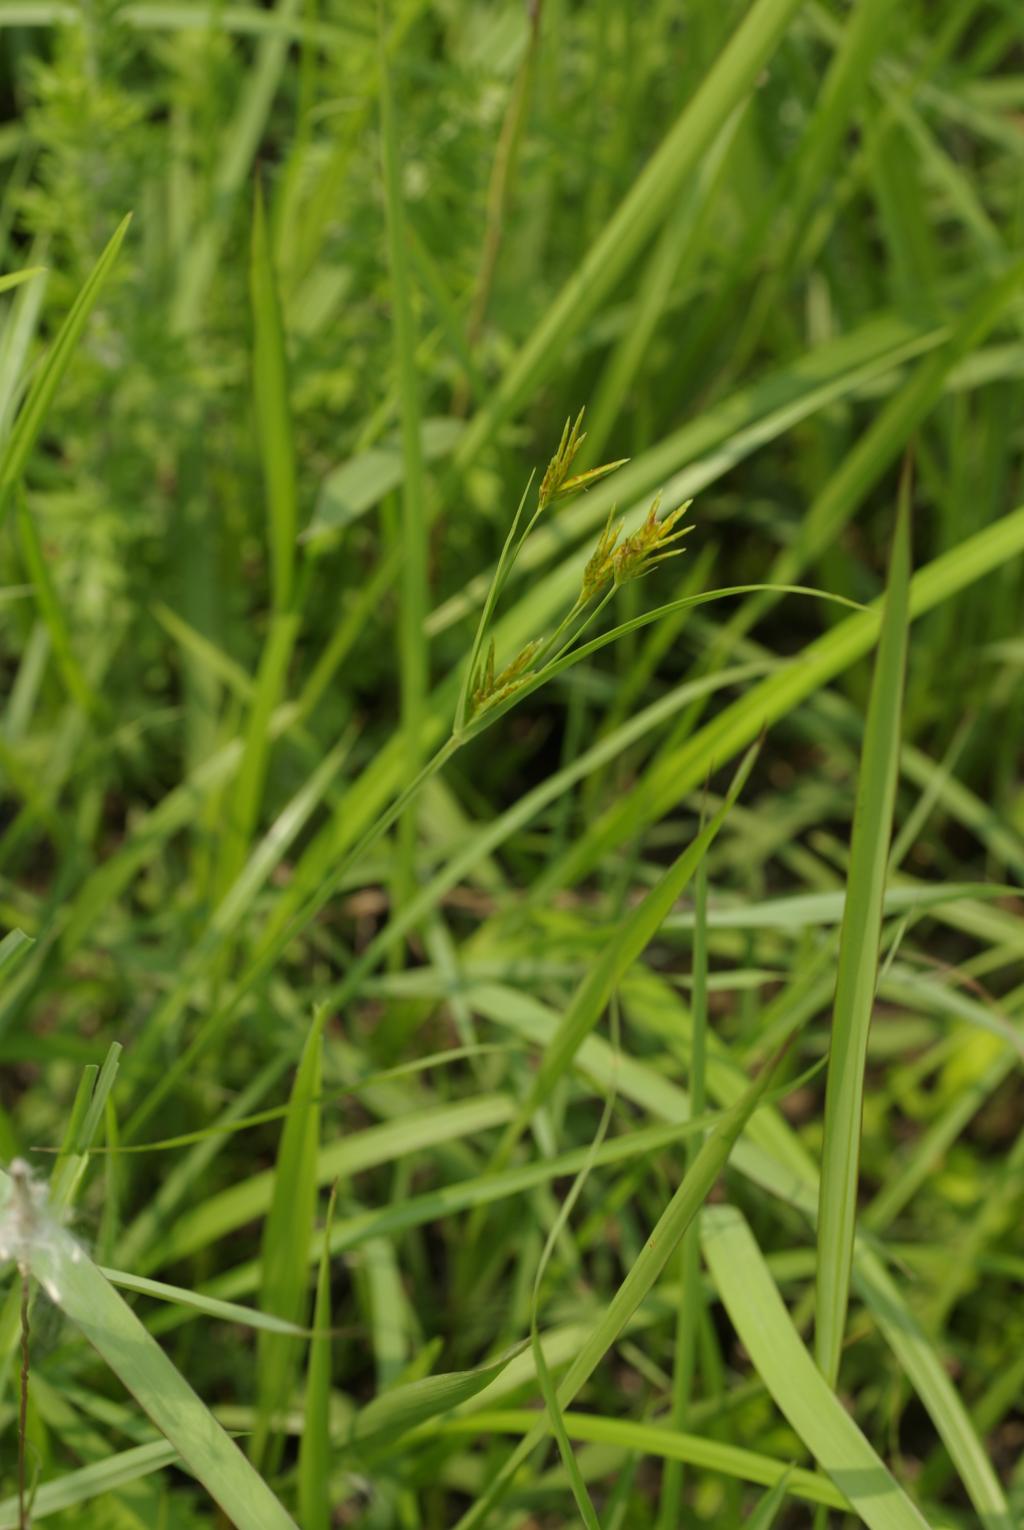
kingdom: Plantae
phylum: Tracheophyta
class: Liliopsida
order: Poales
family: Cyperaceae
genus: Cyperus
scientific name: Cyperus tenuiculmis
